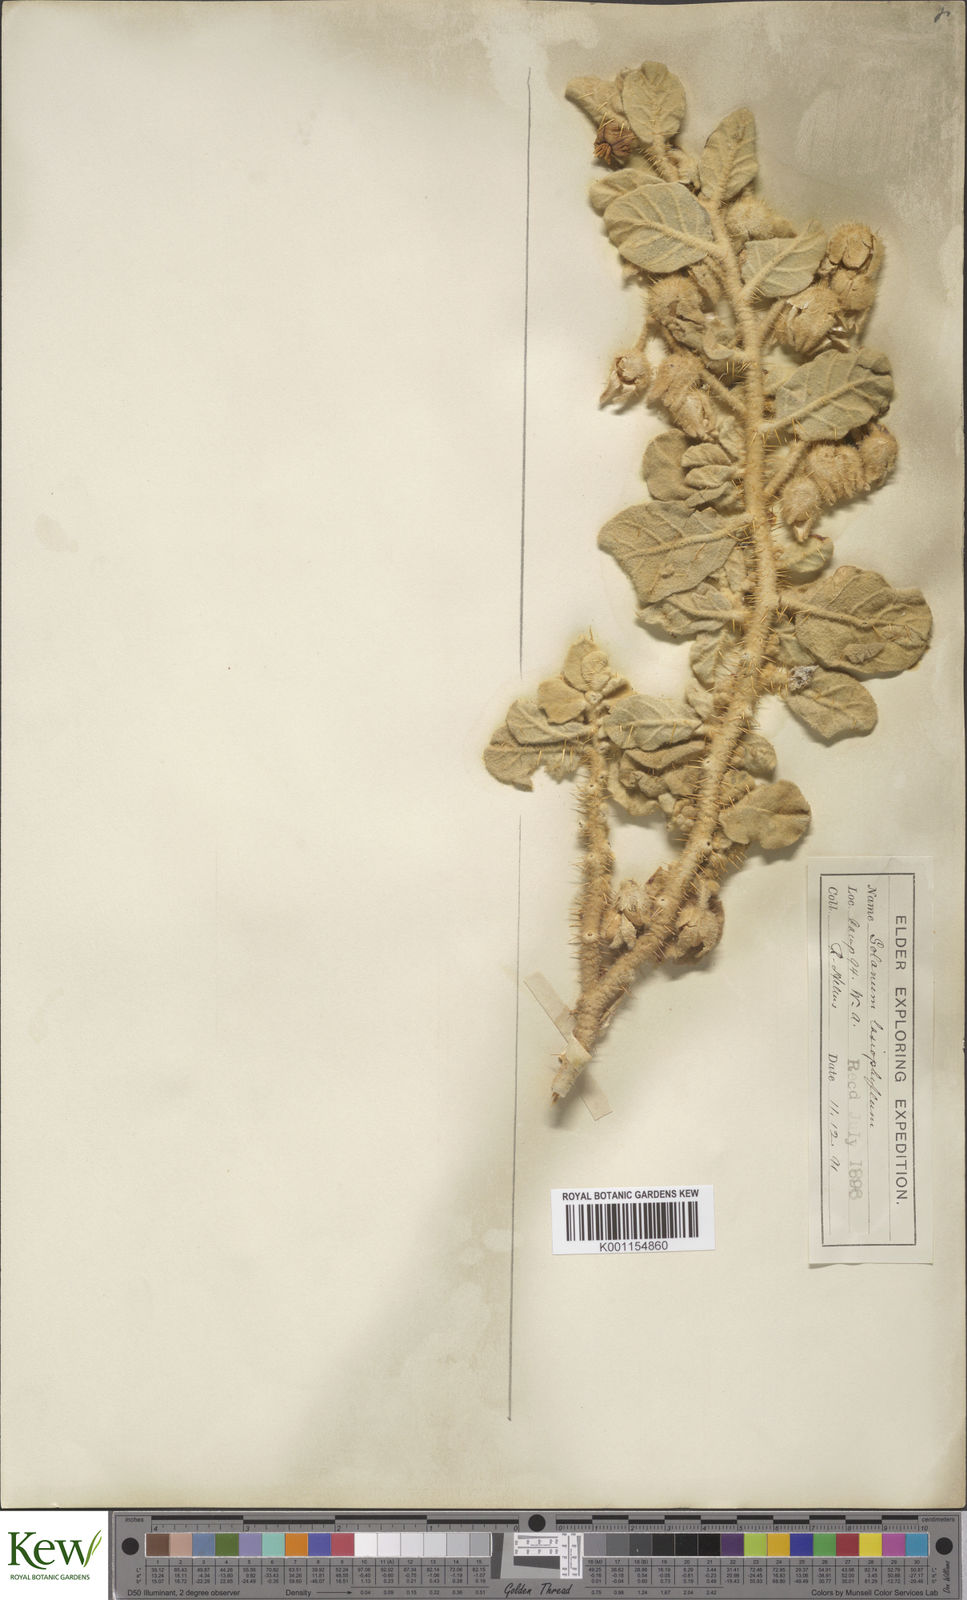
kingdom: Plantae
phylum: Tracheophyta
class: Magnoliopsida
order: Solanales
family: Solanaceae
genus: Solanum
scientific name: Solanum lasiophyllum
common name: Flannelbush
